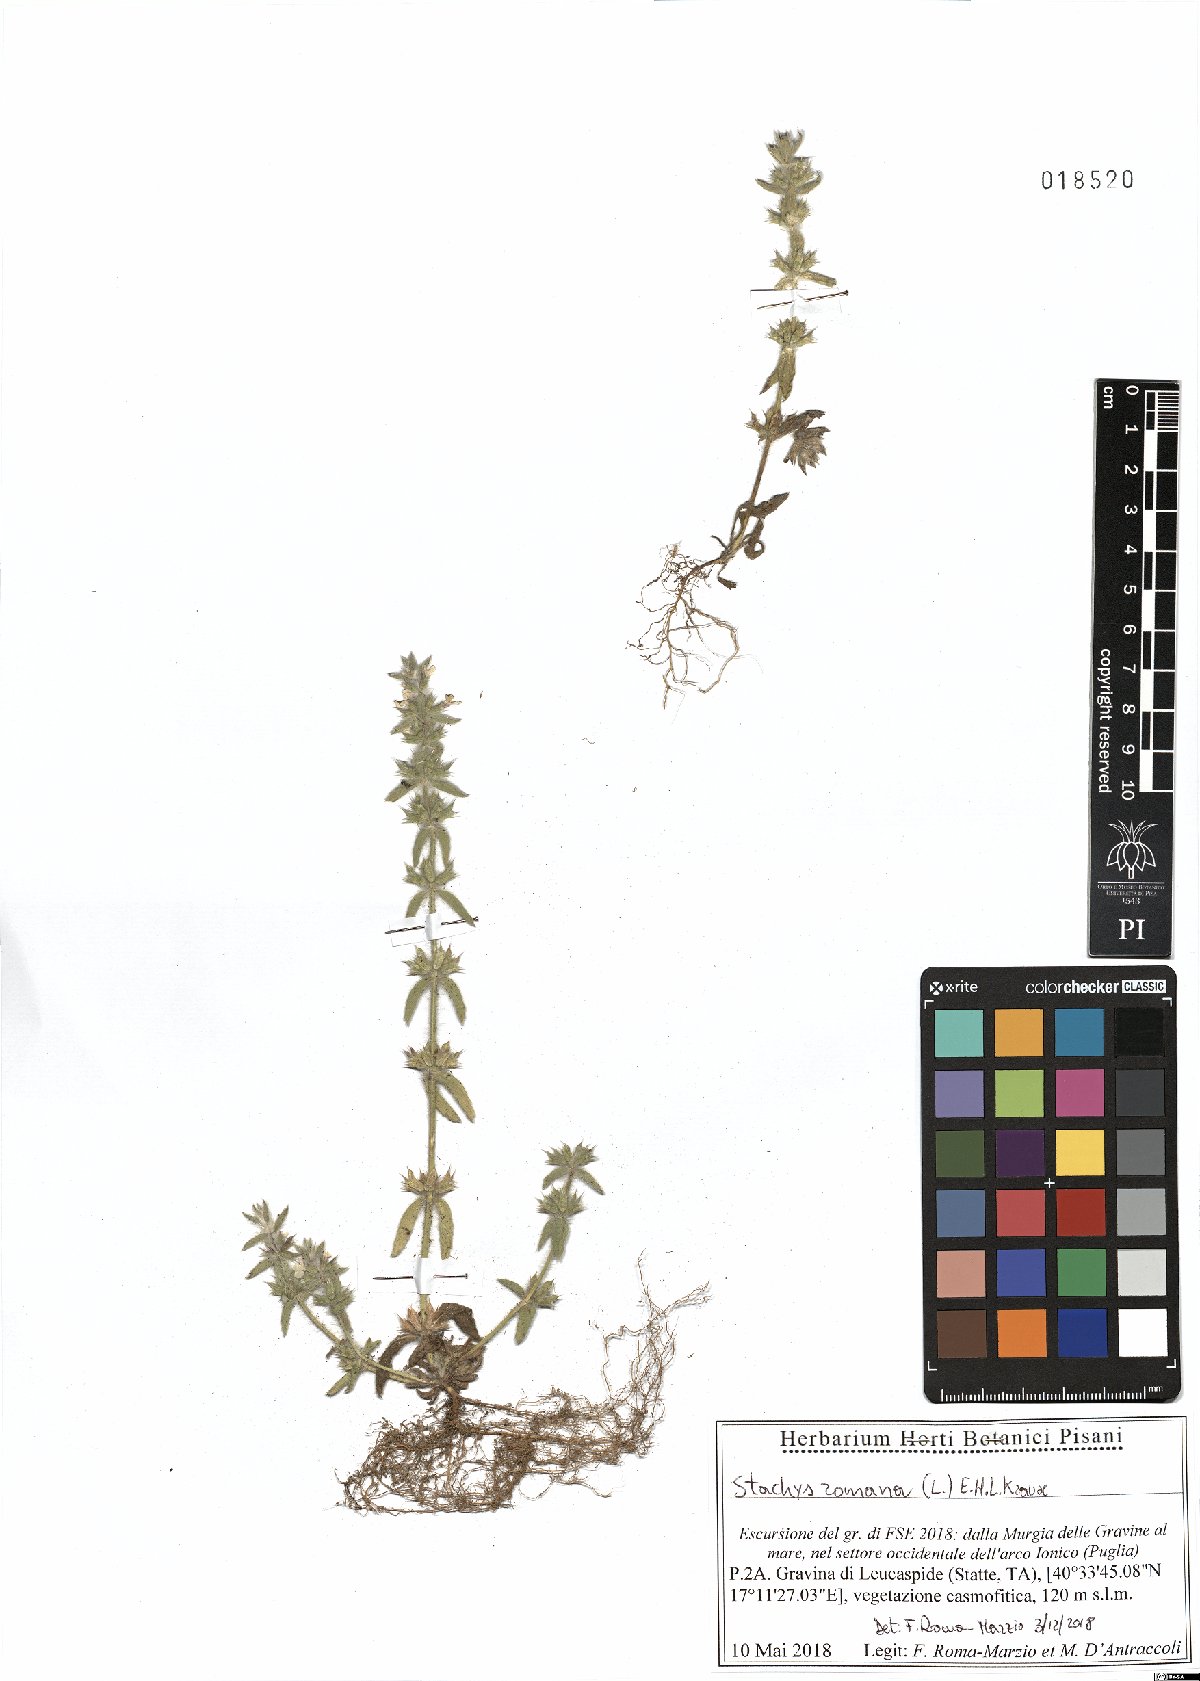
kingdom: Plantae
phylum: Tracheophyta
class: Magnoliopsida
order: Lamiales
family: Lamiaceae
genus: Sideritis
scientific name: Sideritis romana
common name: Simplebeak ironwort
